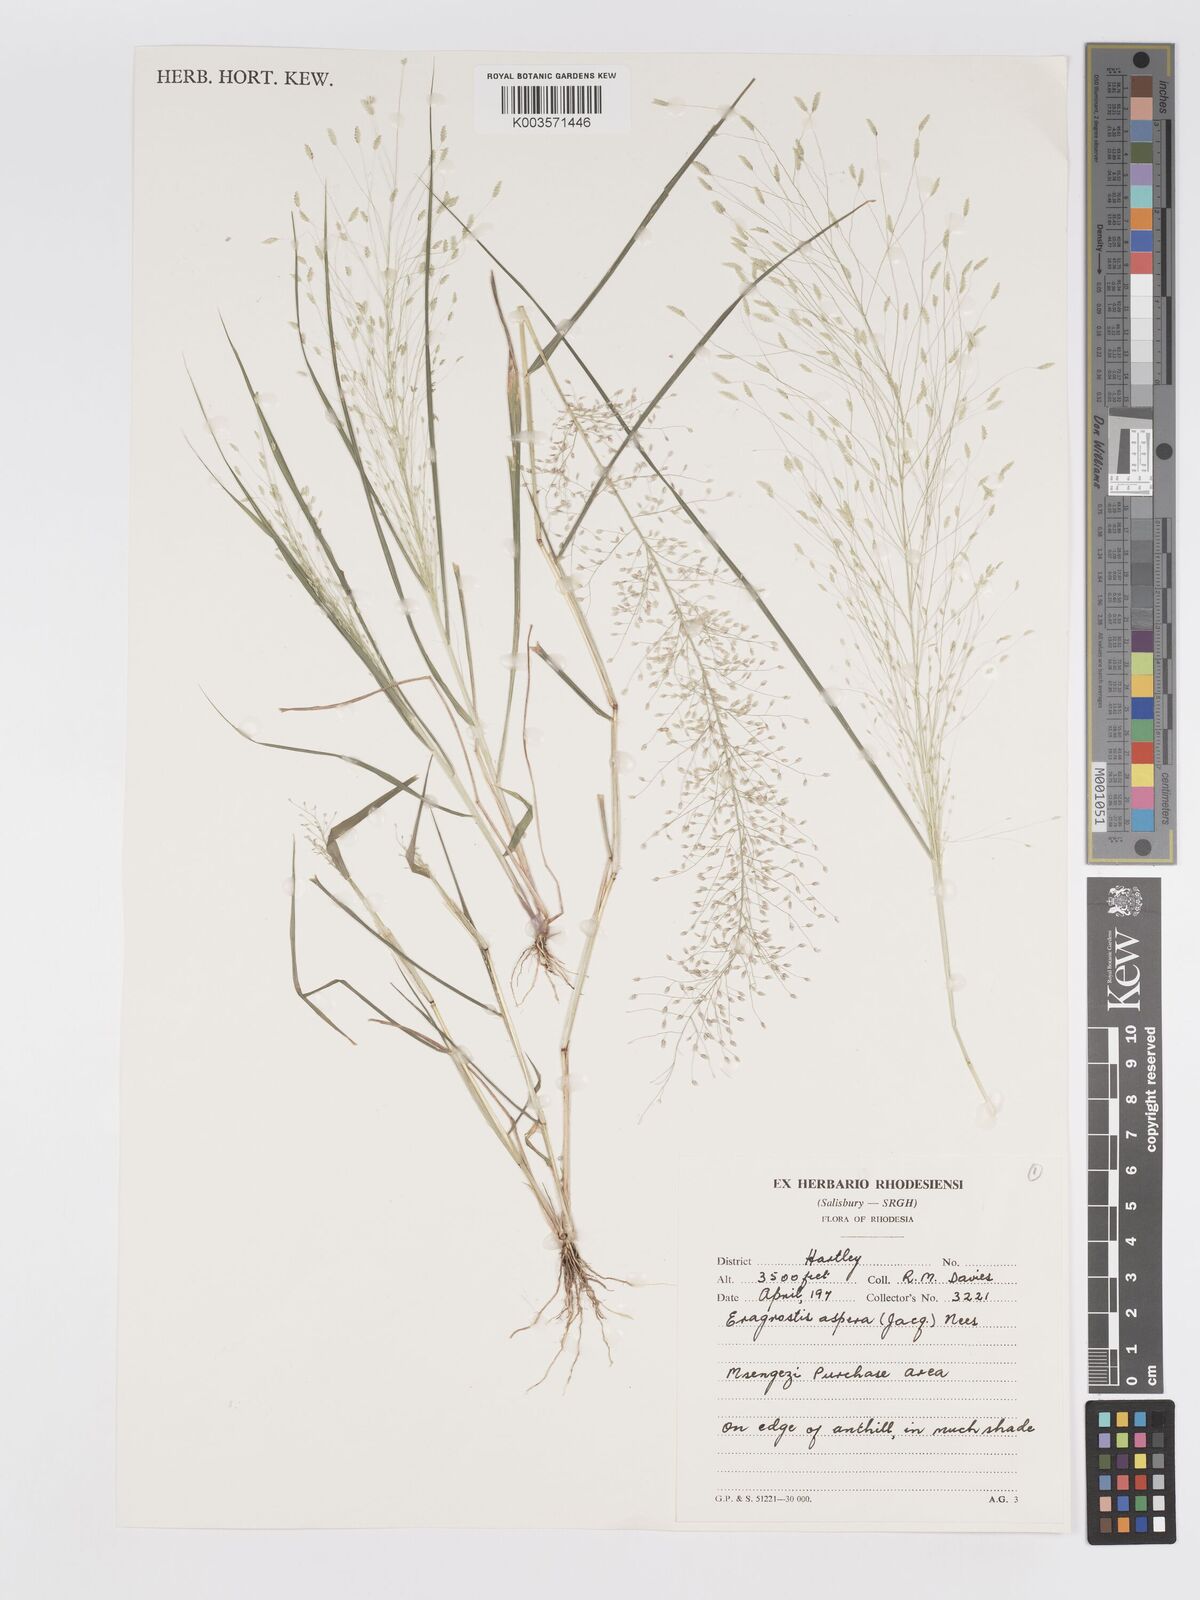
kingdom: Plantae
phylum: Tracheophyta
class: Liliopsida
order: Poales
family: Poaceae
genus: Eragrostis
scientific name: Eragrostis aspera
